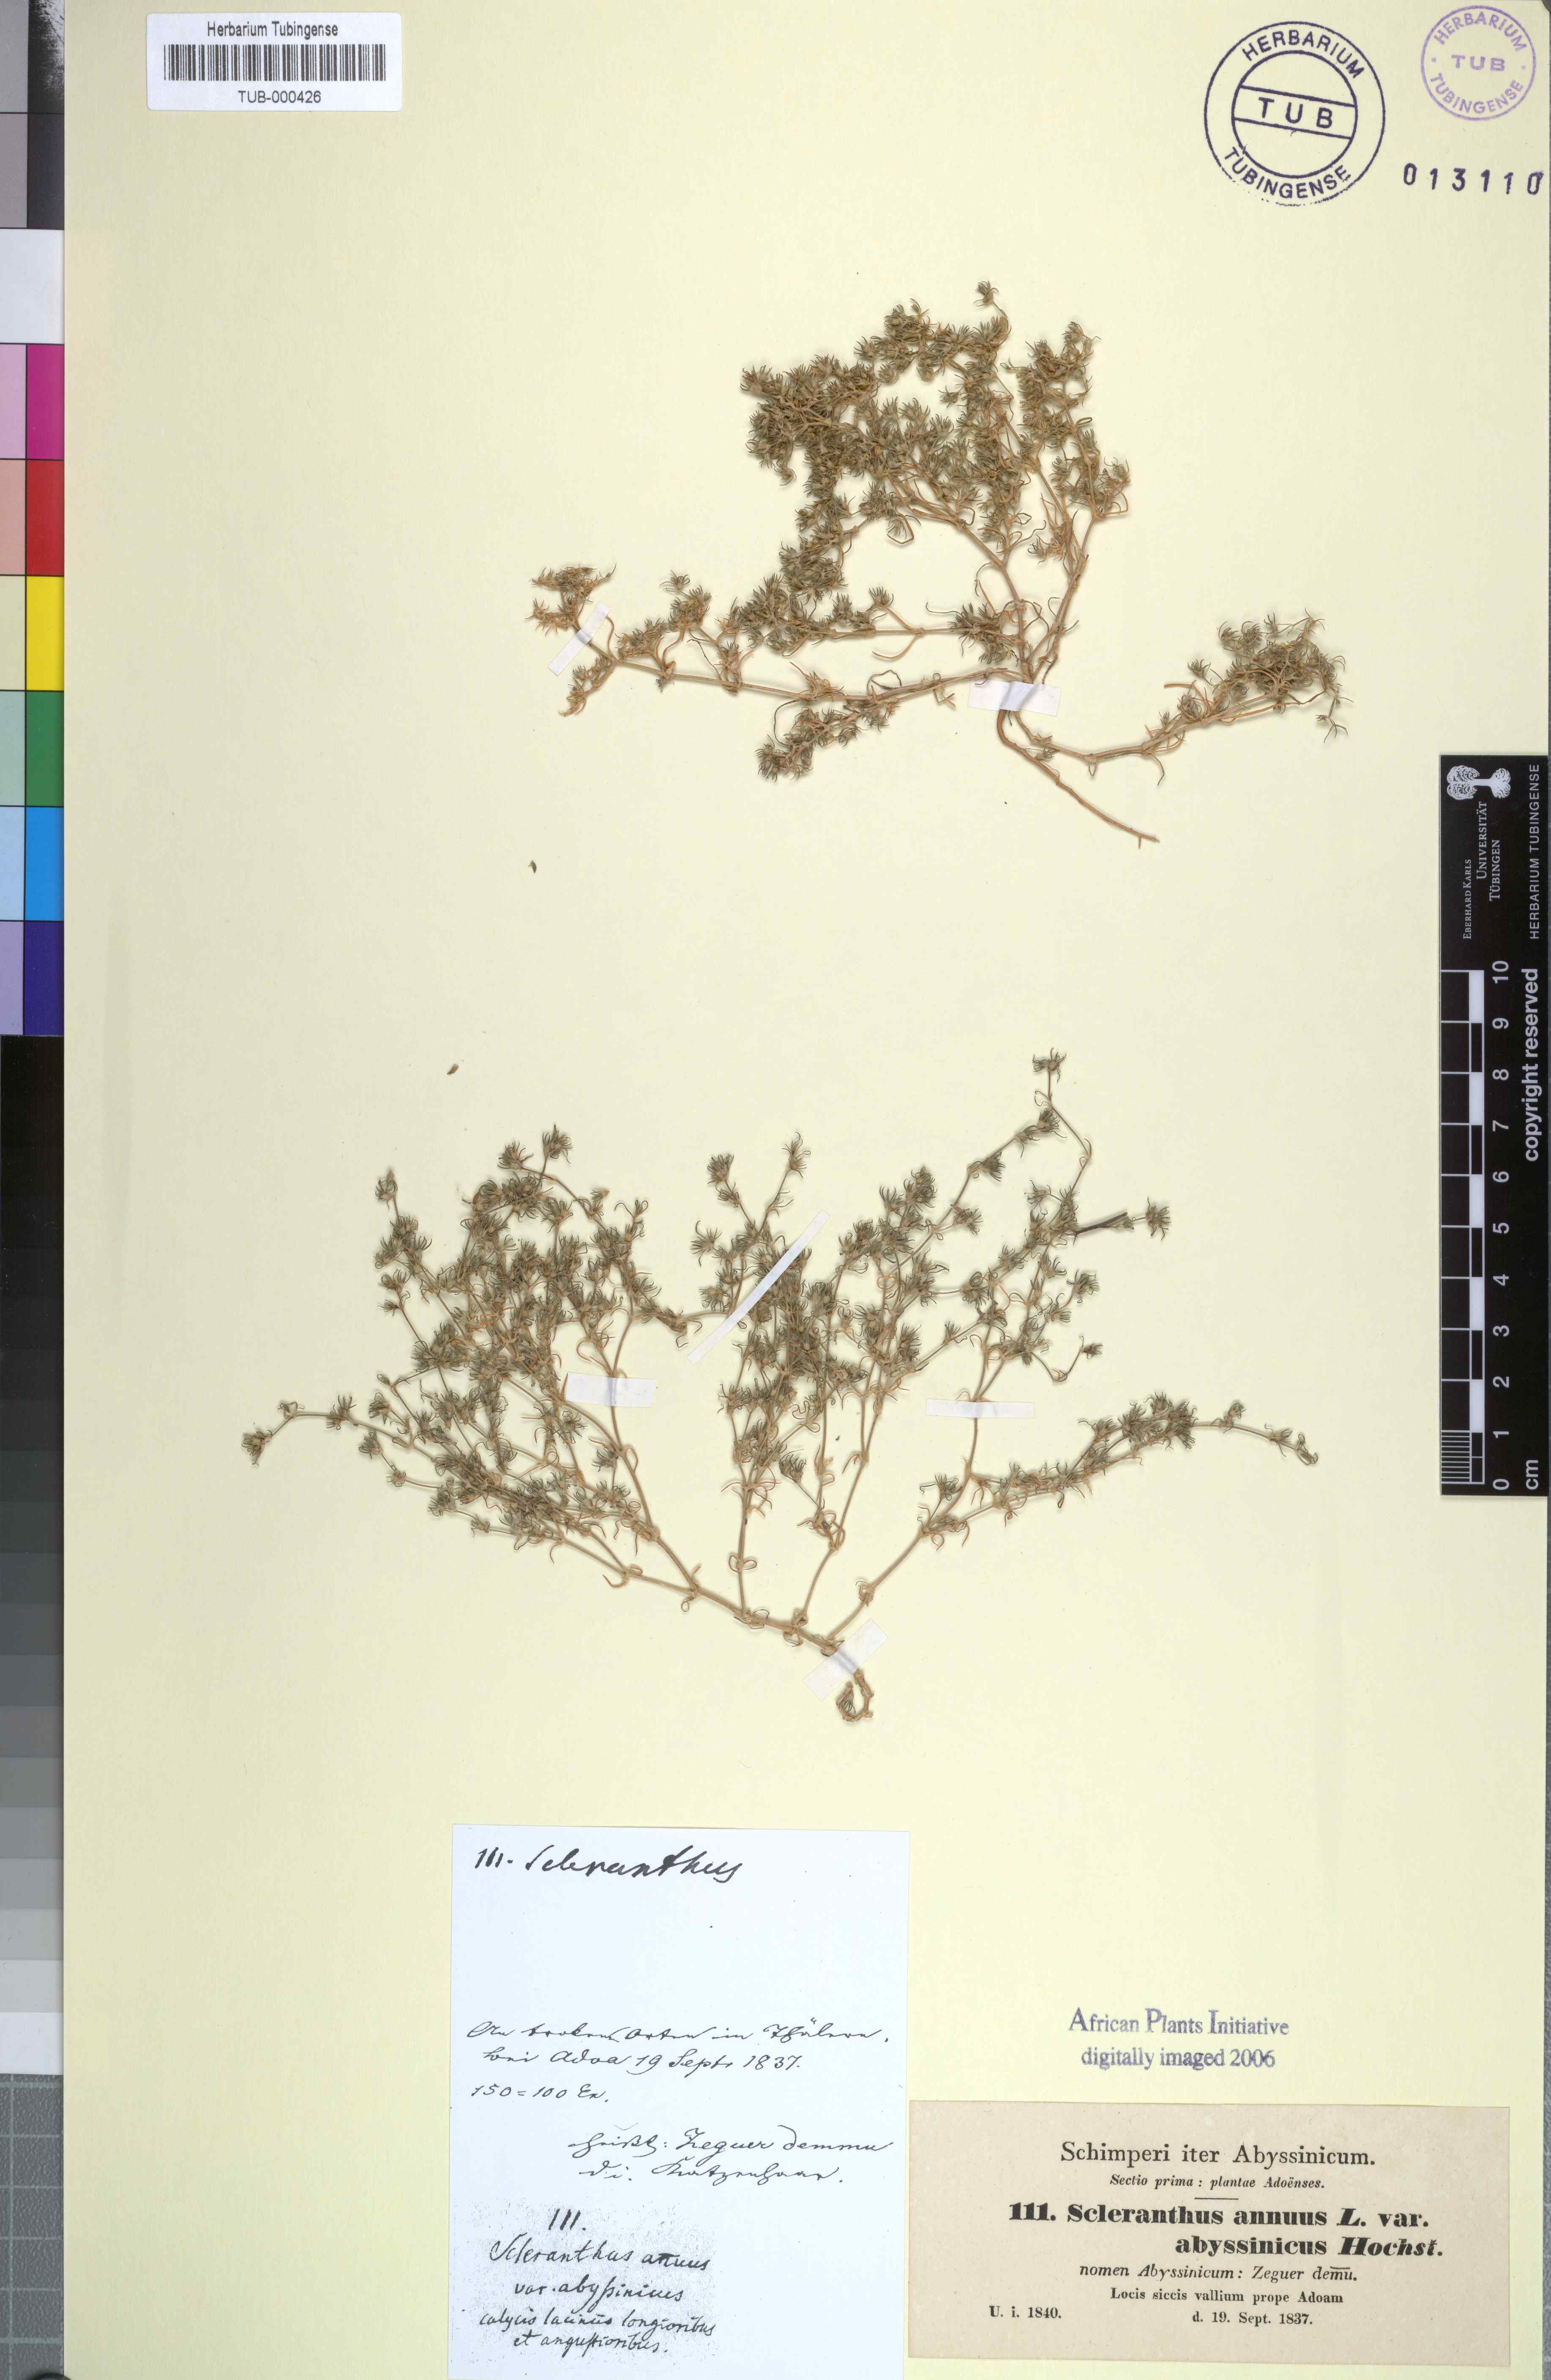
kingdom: Plantae
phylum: Tracheophyta
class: Magnoliopsida
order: Caryophyllales
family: Caryophyllaceae
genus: Scleranthus
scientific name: Scleranthus annuus
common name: Annual knawel
